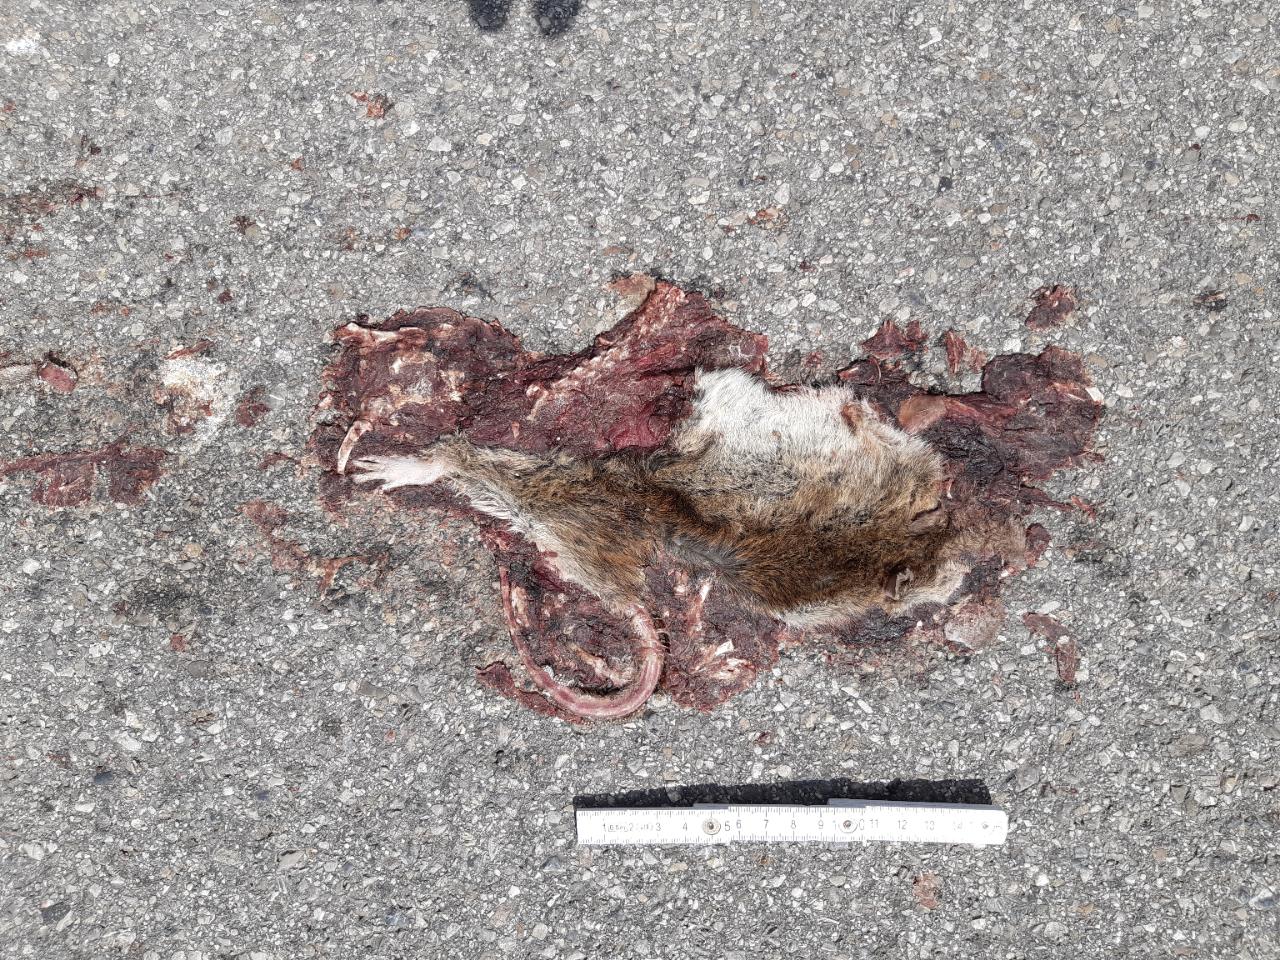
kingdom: Animalia
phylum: Chordata
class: Mammalia
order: Rodentia
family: Muridae
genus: Rattus
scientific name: Rattus
